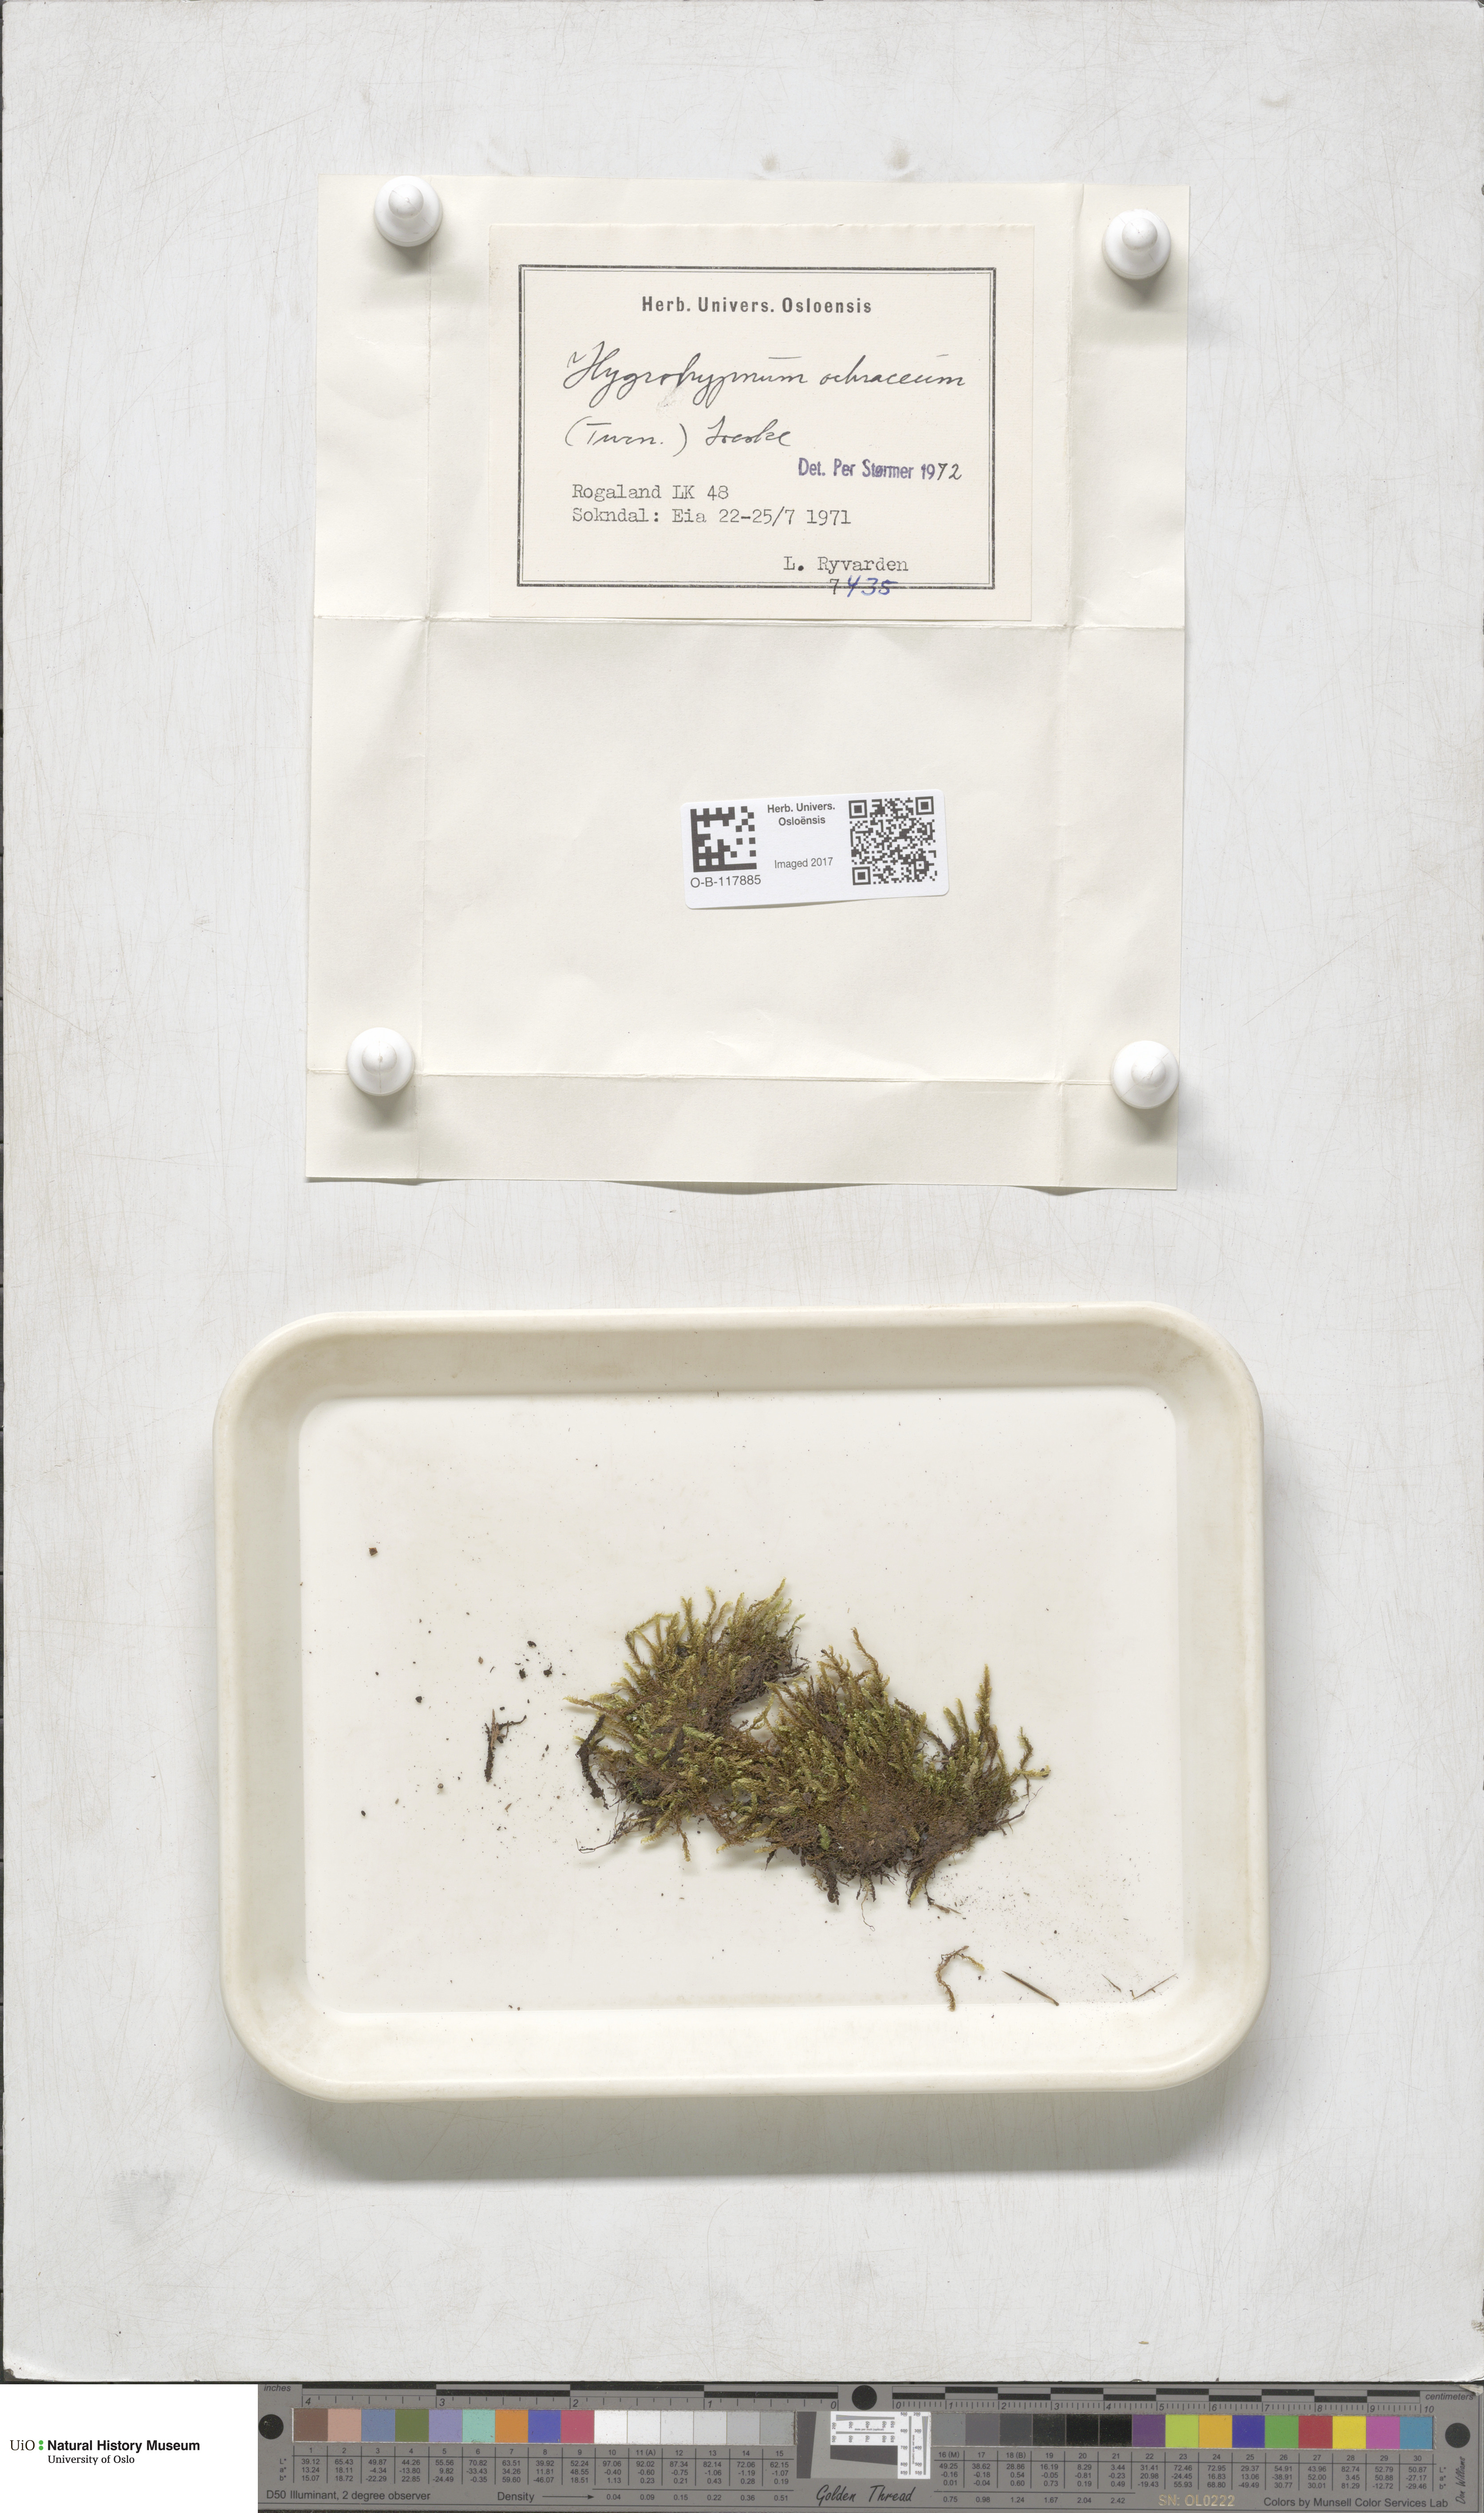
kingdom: Plantae
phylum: Bryophyta
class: Bryopsida
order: Hypnales
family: Scorpidiaceae
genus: Hygrohypnella
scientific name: Hygrohypnella ochracea
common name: Hygrohypnum moss
